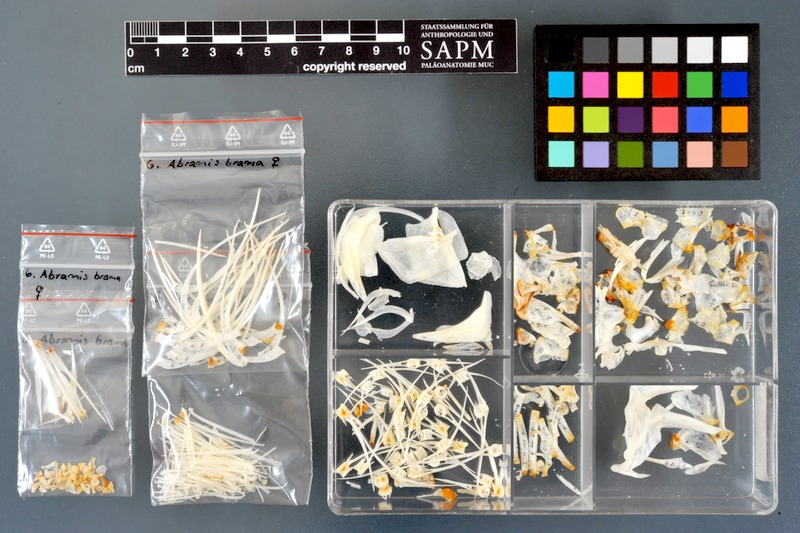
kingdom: Animalia
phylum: Chordata
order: Cypriniformes
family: Cyprinidae
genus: Abramis
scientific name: Abramis brama
